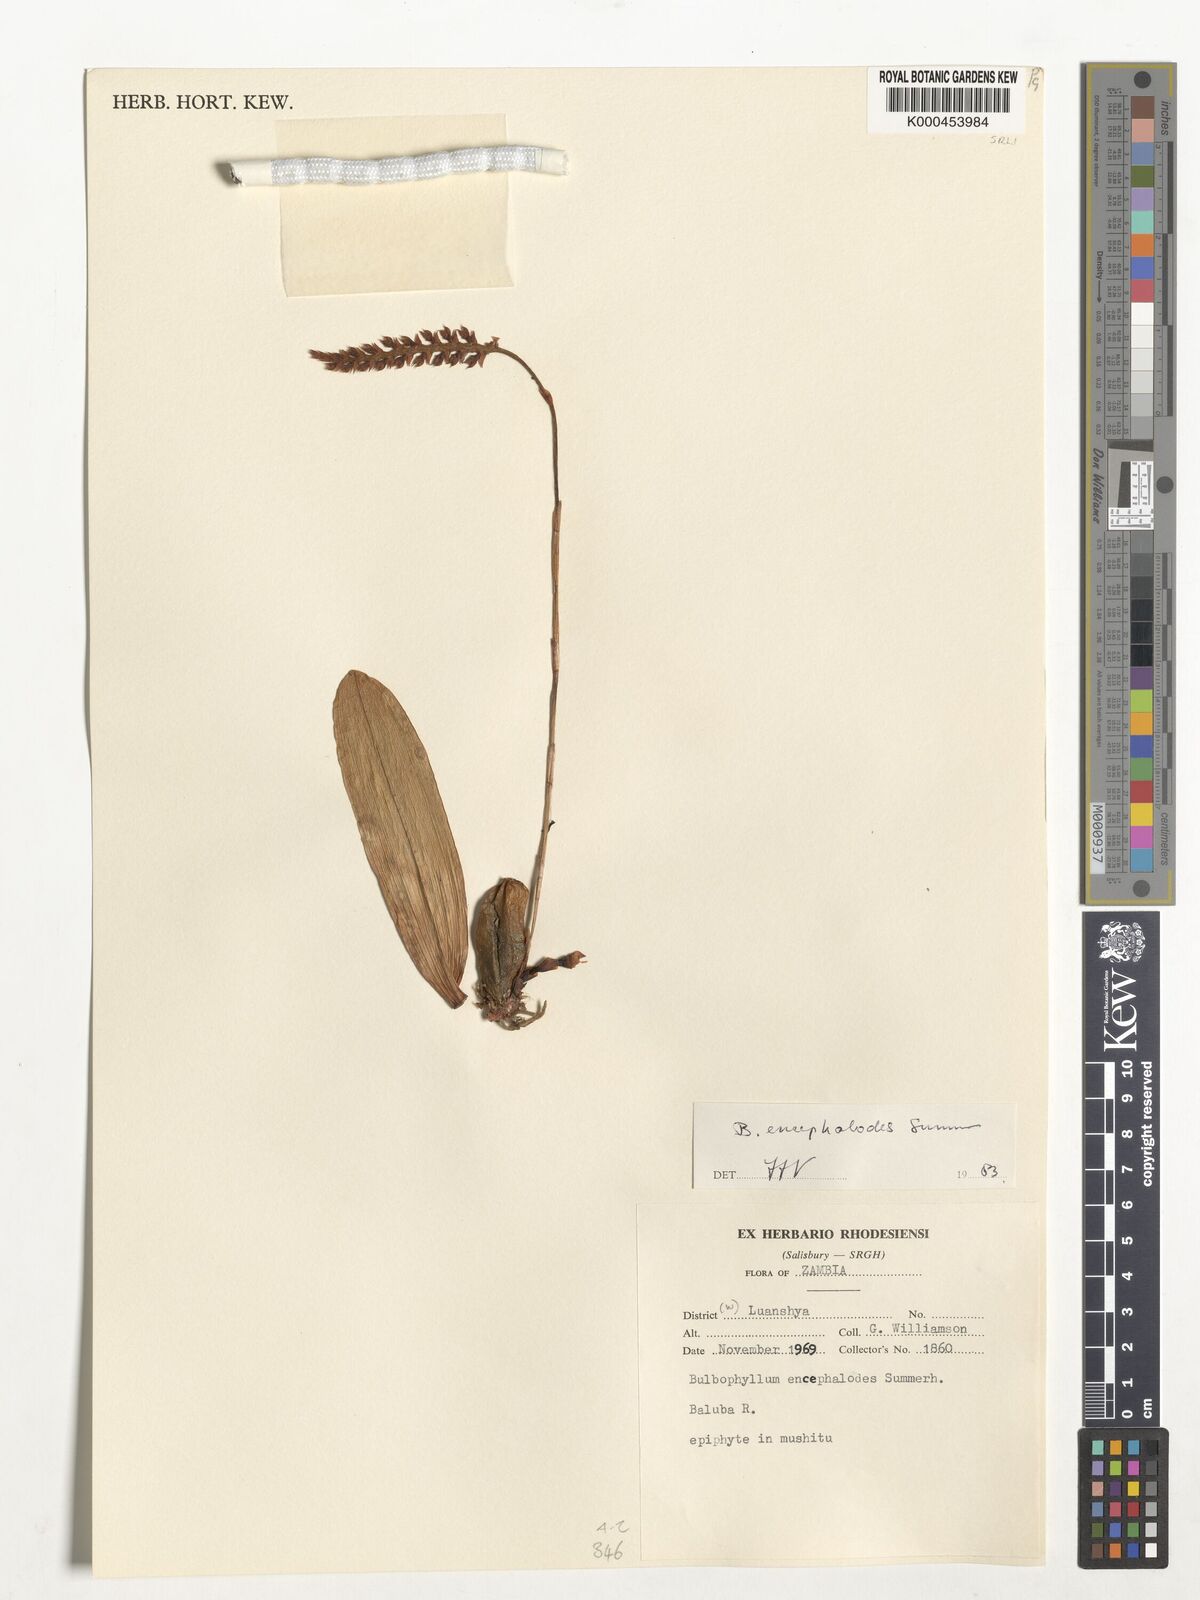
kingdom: Plantae
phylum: Tracheophyta
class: Liliopsida
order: Asparagales
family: Orchidaceae
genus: Bulbophyllum
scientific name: Bulbophyllum encephalodes
